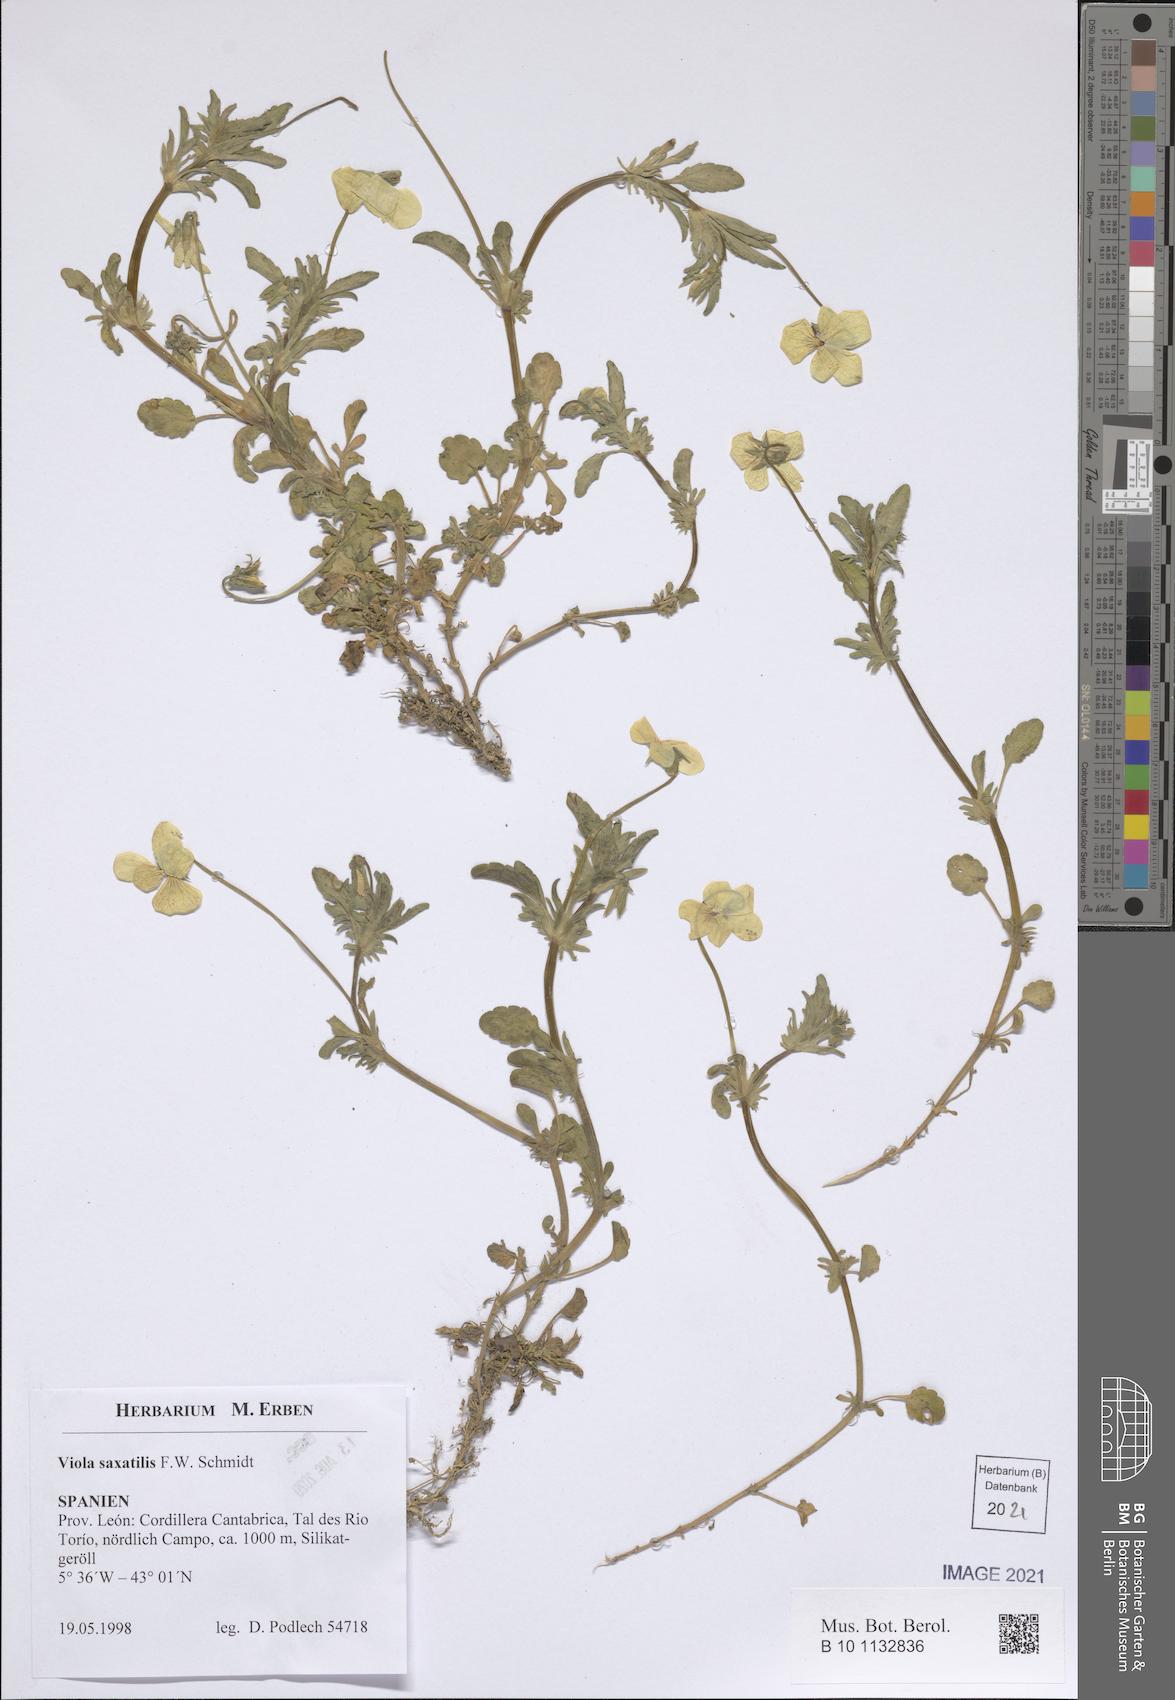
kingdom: Plantae
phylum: Tracheophyta
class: Magnoliopsida
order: Malpighiales
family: Violaceae
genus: Viola
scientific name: Viola tricolor
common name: Pansy
